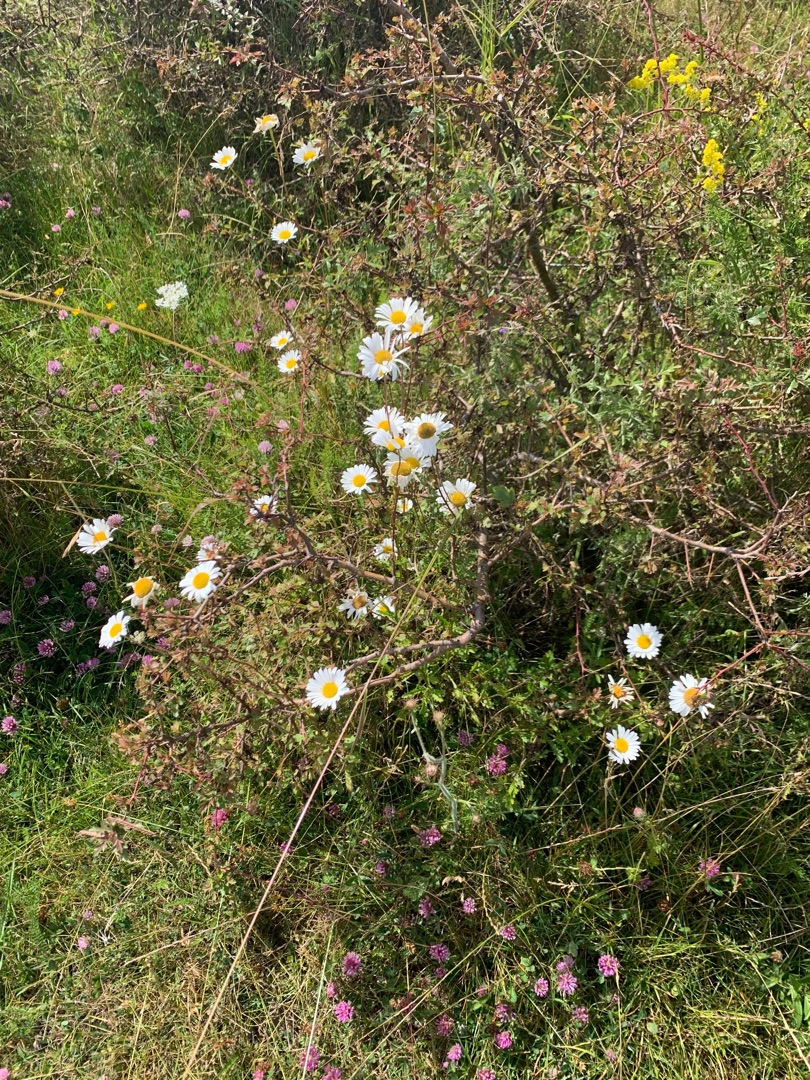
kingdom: Plantae
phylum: Tracheophyta
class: Magnoliopsida
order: Asterales
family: Asteraceae
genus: Leucanthemum
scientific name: Leucanthemum vulgare
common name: Hvid okseøje
